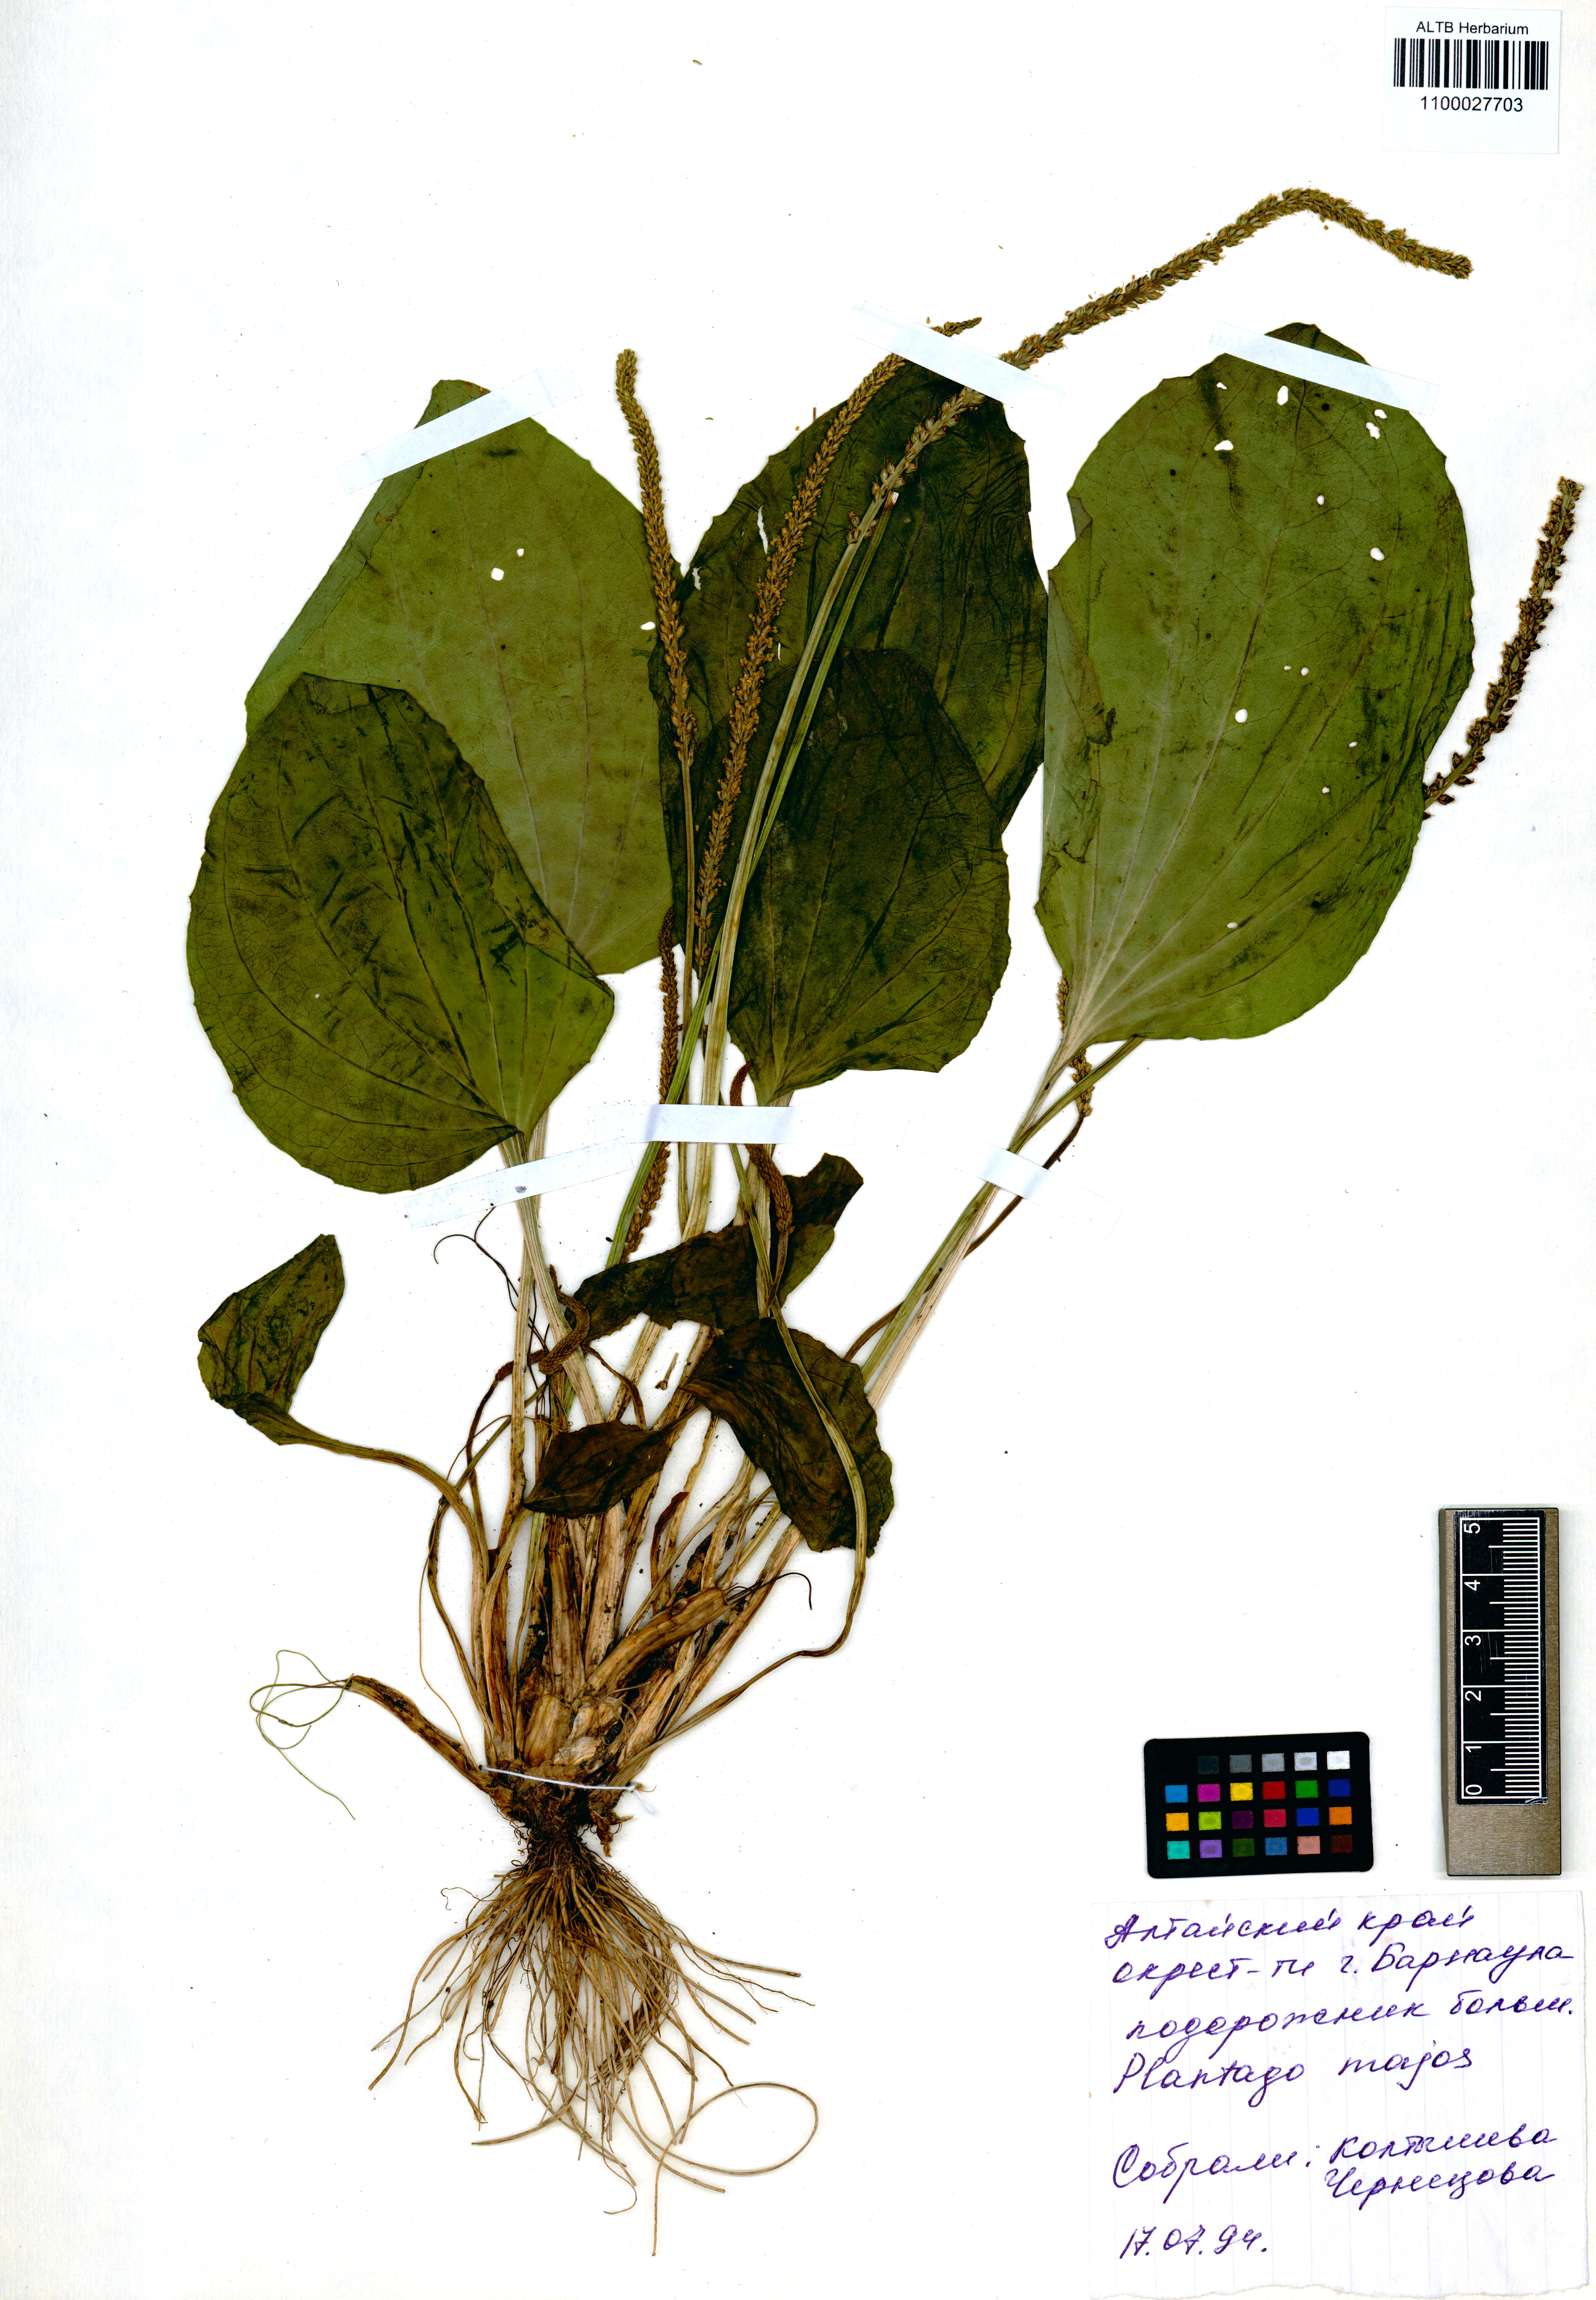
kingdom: Plantae
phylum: Tracheophyta
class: Magnoliopsida
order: Lamiales
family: Plantaginaceae
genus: Plantago
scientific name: Plantago major
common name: Common plantain
